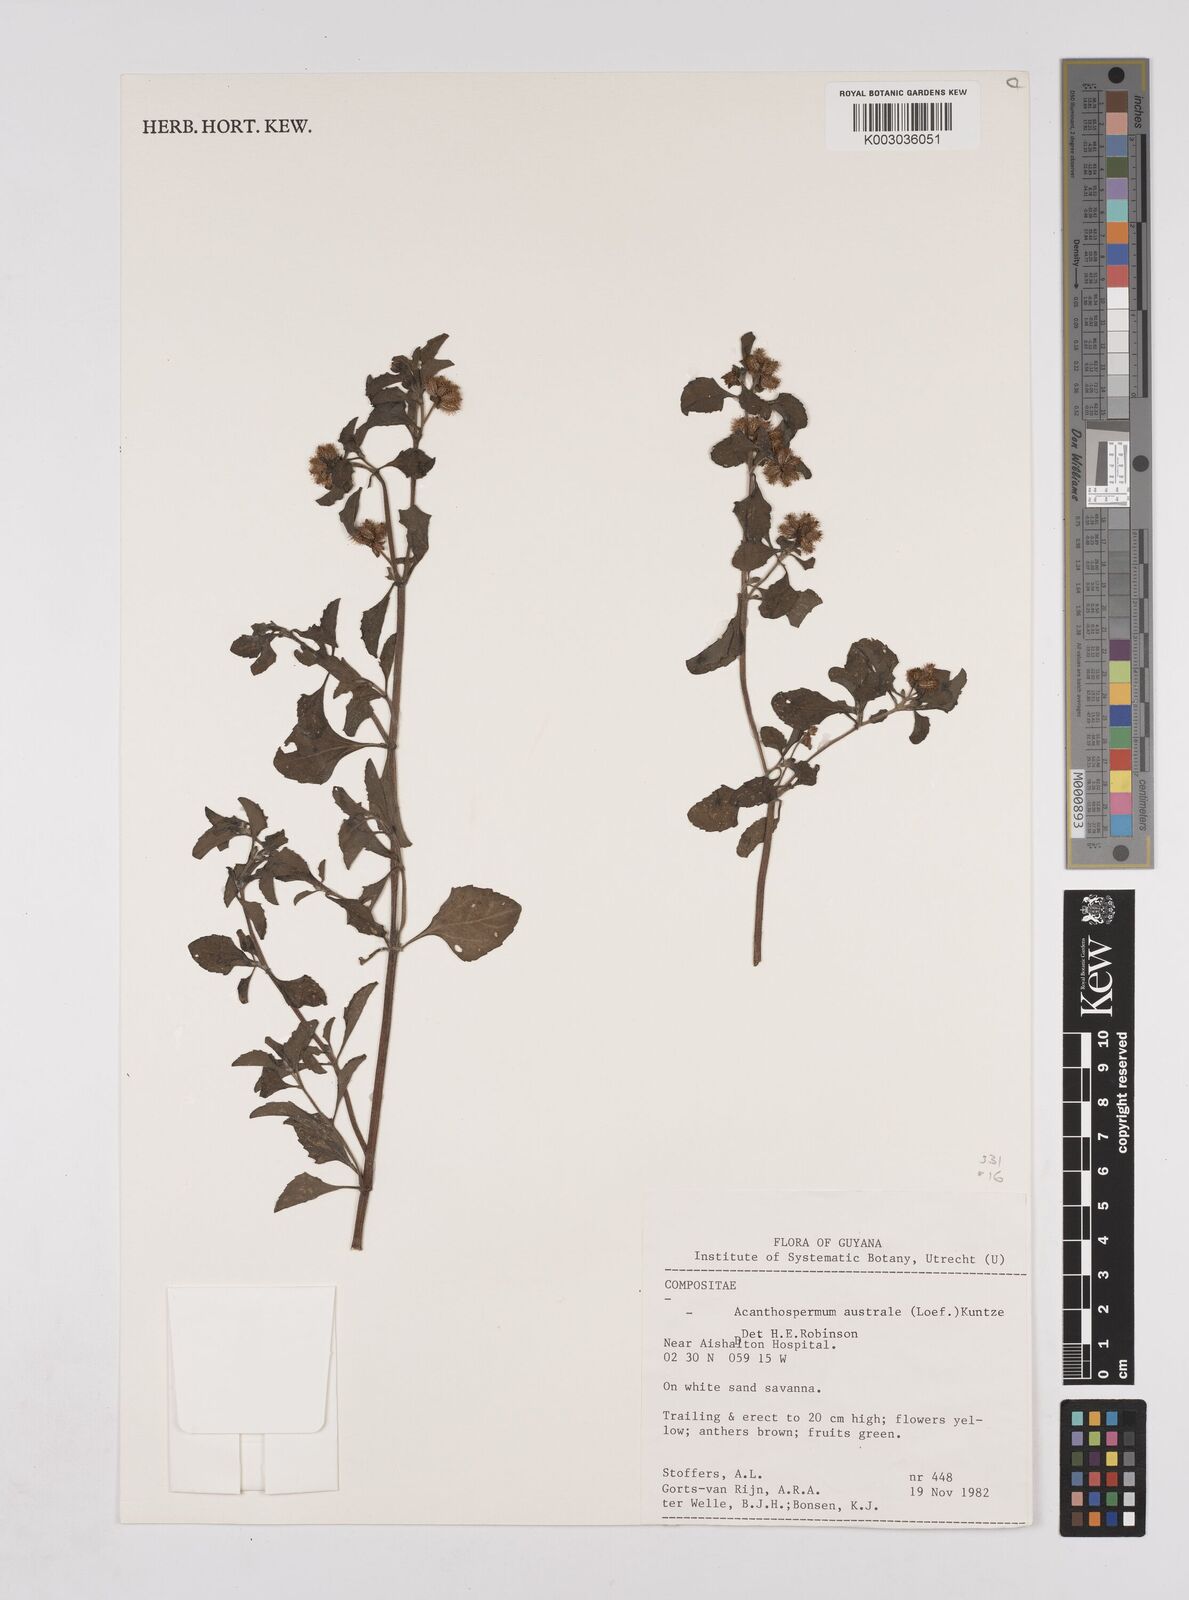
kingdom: Plantae
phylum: Tracheophyta
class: Magnoliopsida
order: Asterales
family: Asteraceae
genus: Acanthospermum
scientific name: Acanthospermum australe
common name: Paraguayan starbur
